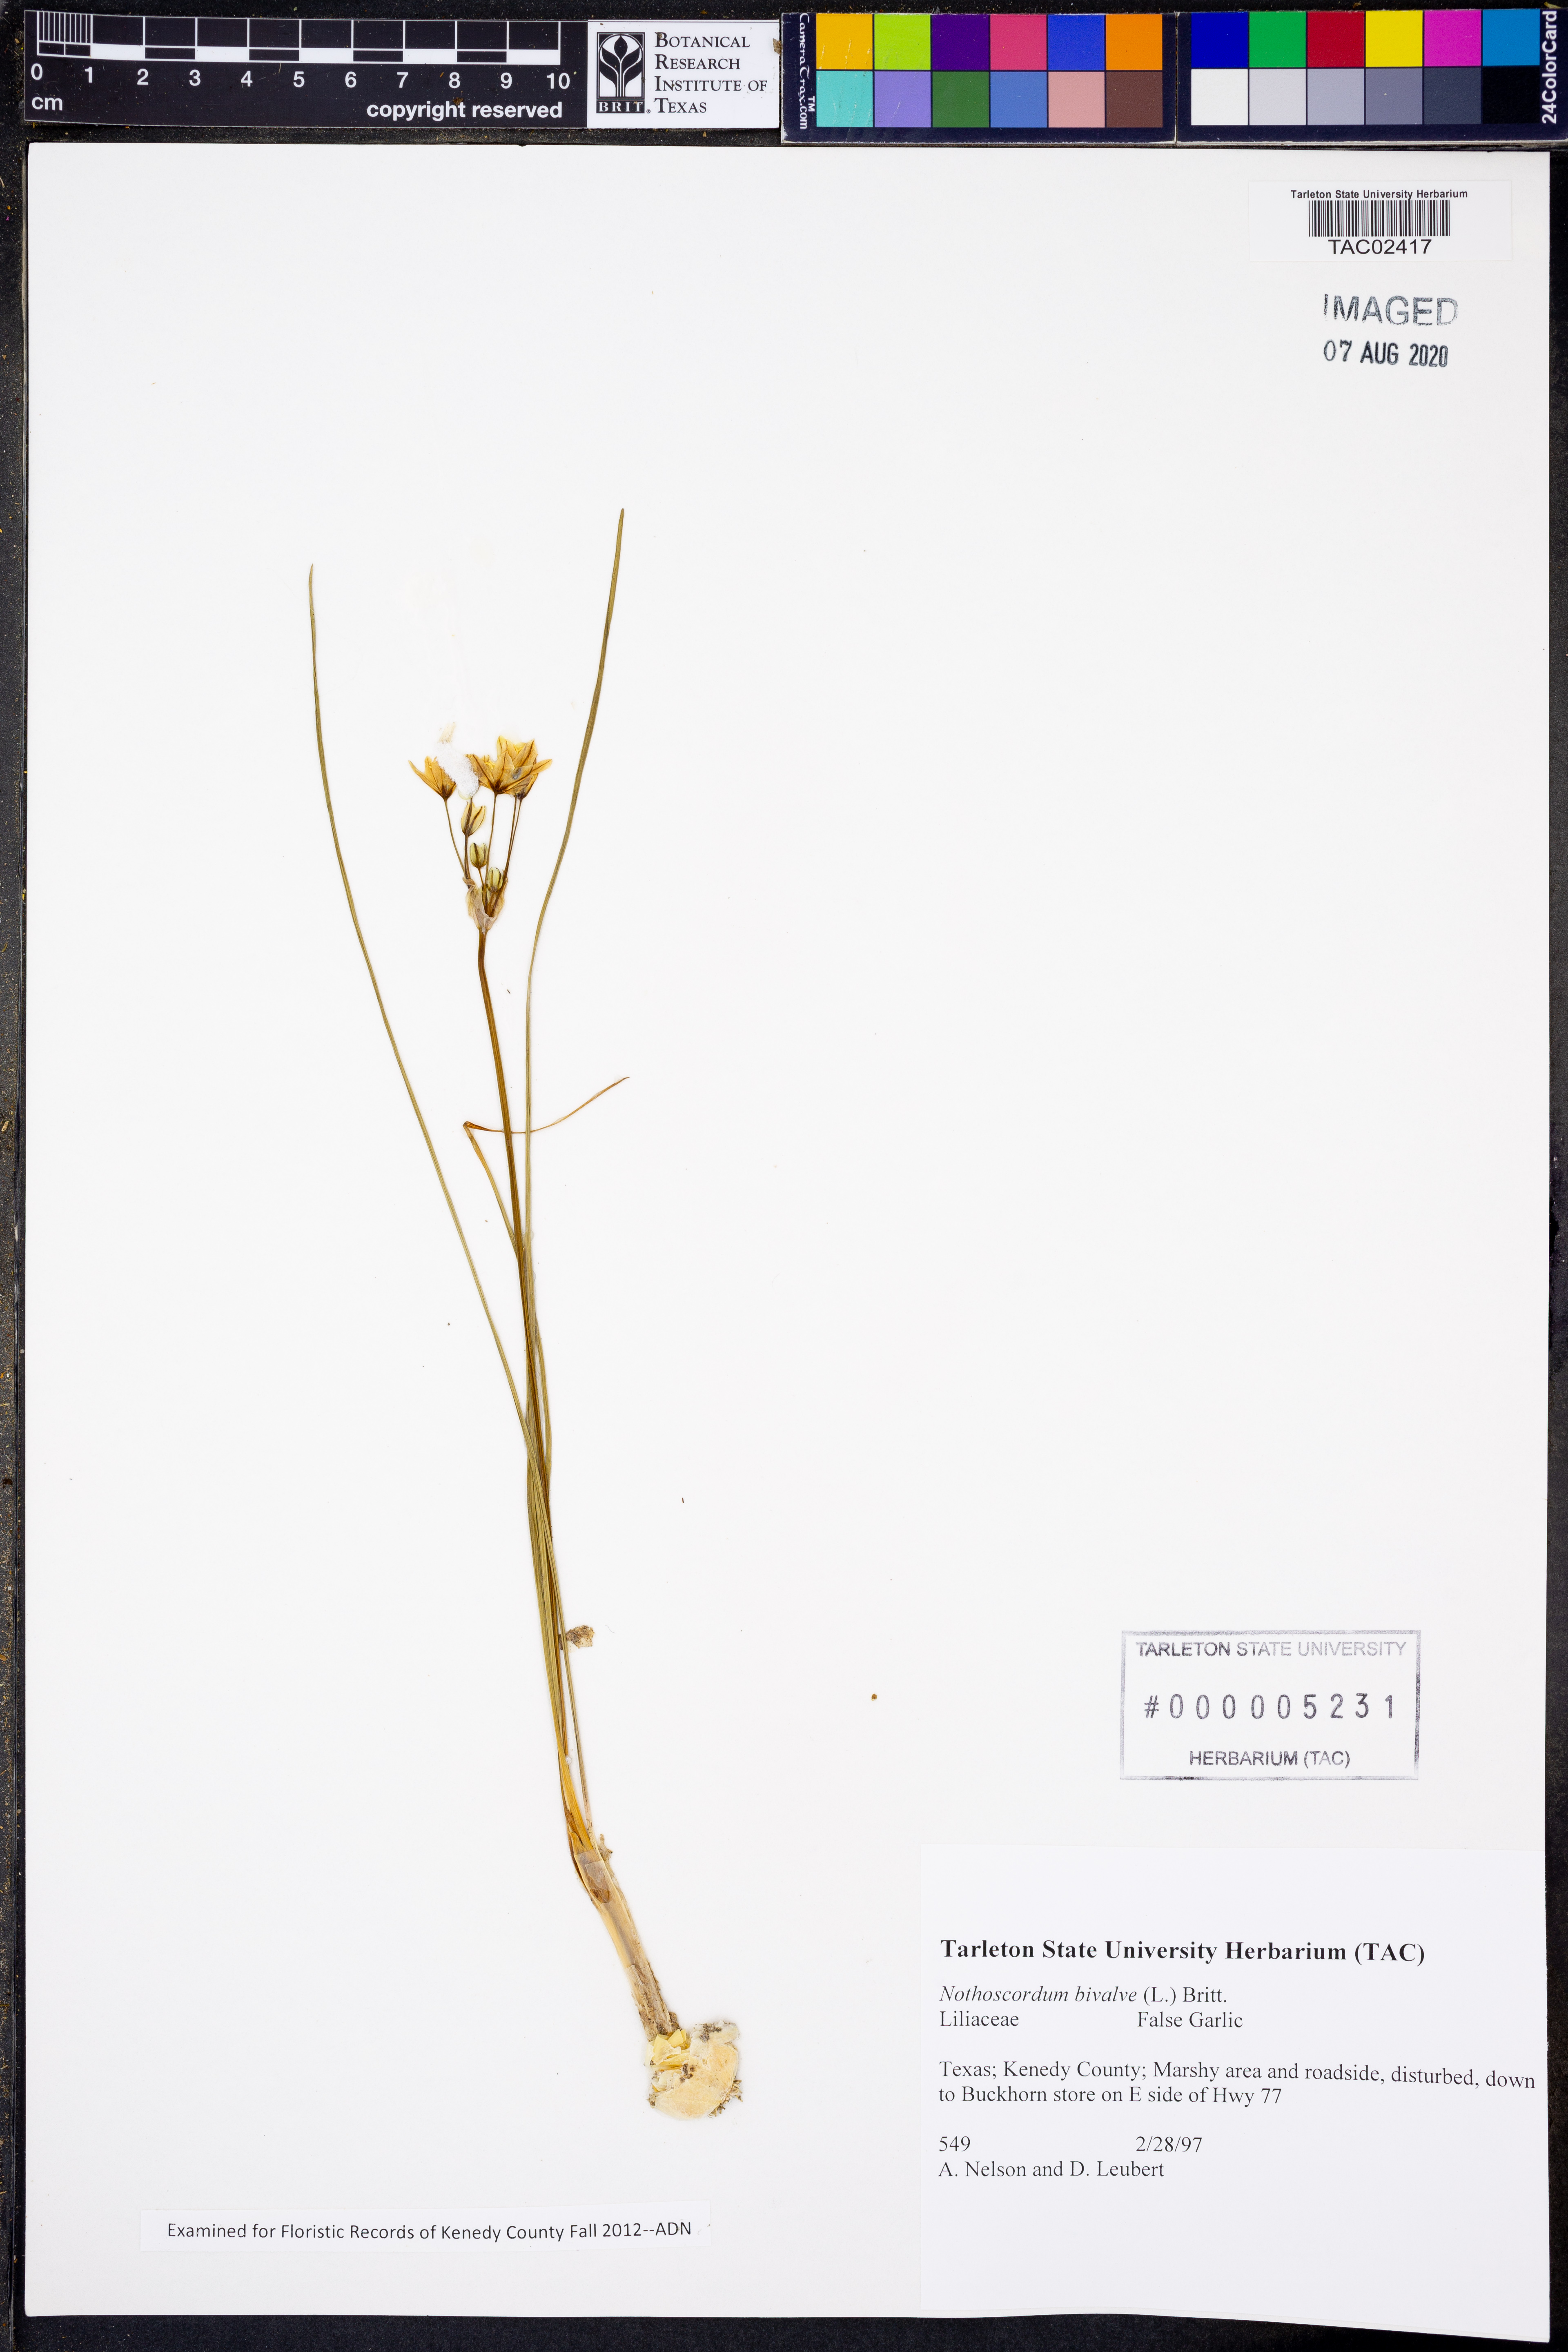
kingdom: Plantae
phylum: Tracheophyta
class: Liliopsida
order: Asparagales
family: Amaryllidaceae
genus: Nothoscordum
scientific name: Nothoscordum bivalve
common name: Crow-poison
